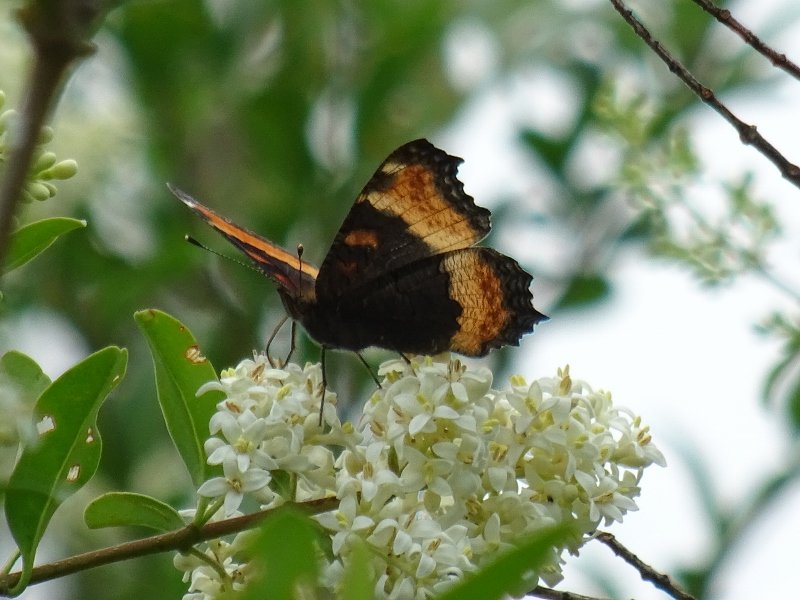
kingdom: Animalia
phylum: Arthropoda
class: Insecta
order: Lepidoptera
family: Nymphalidae
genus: Aglais
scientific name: Aglais milberti
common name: Milbert's Tortoiseshell
